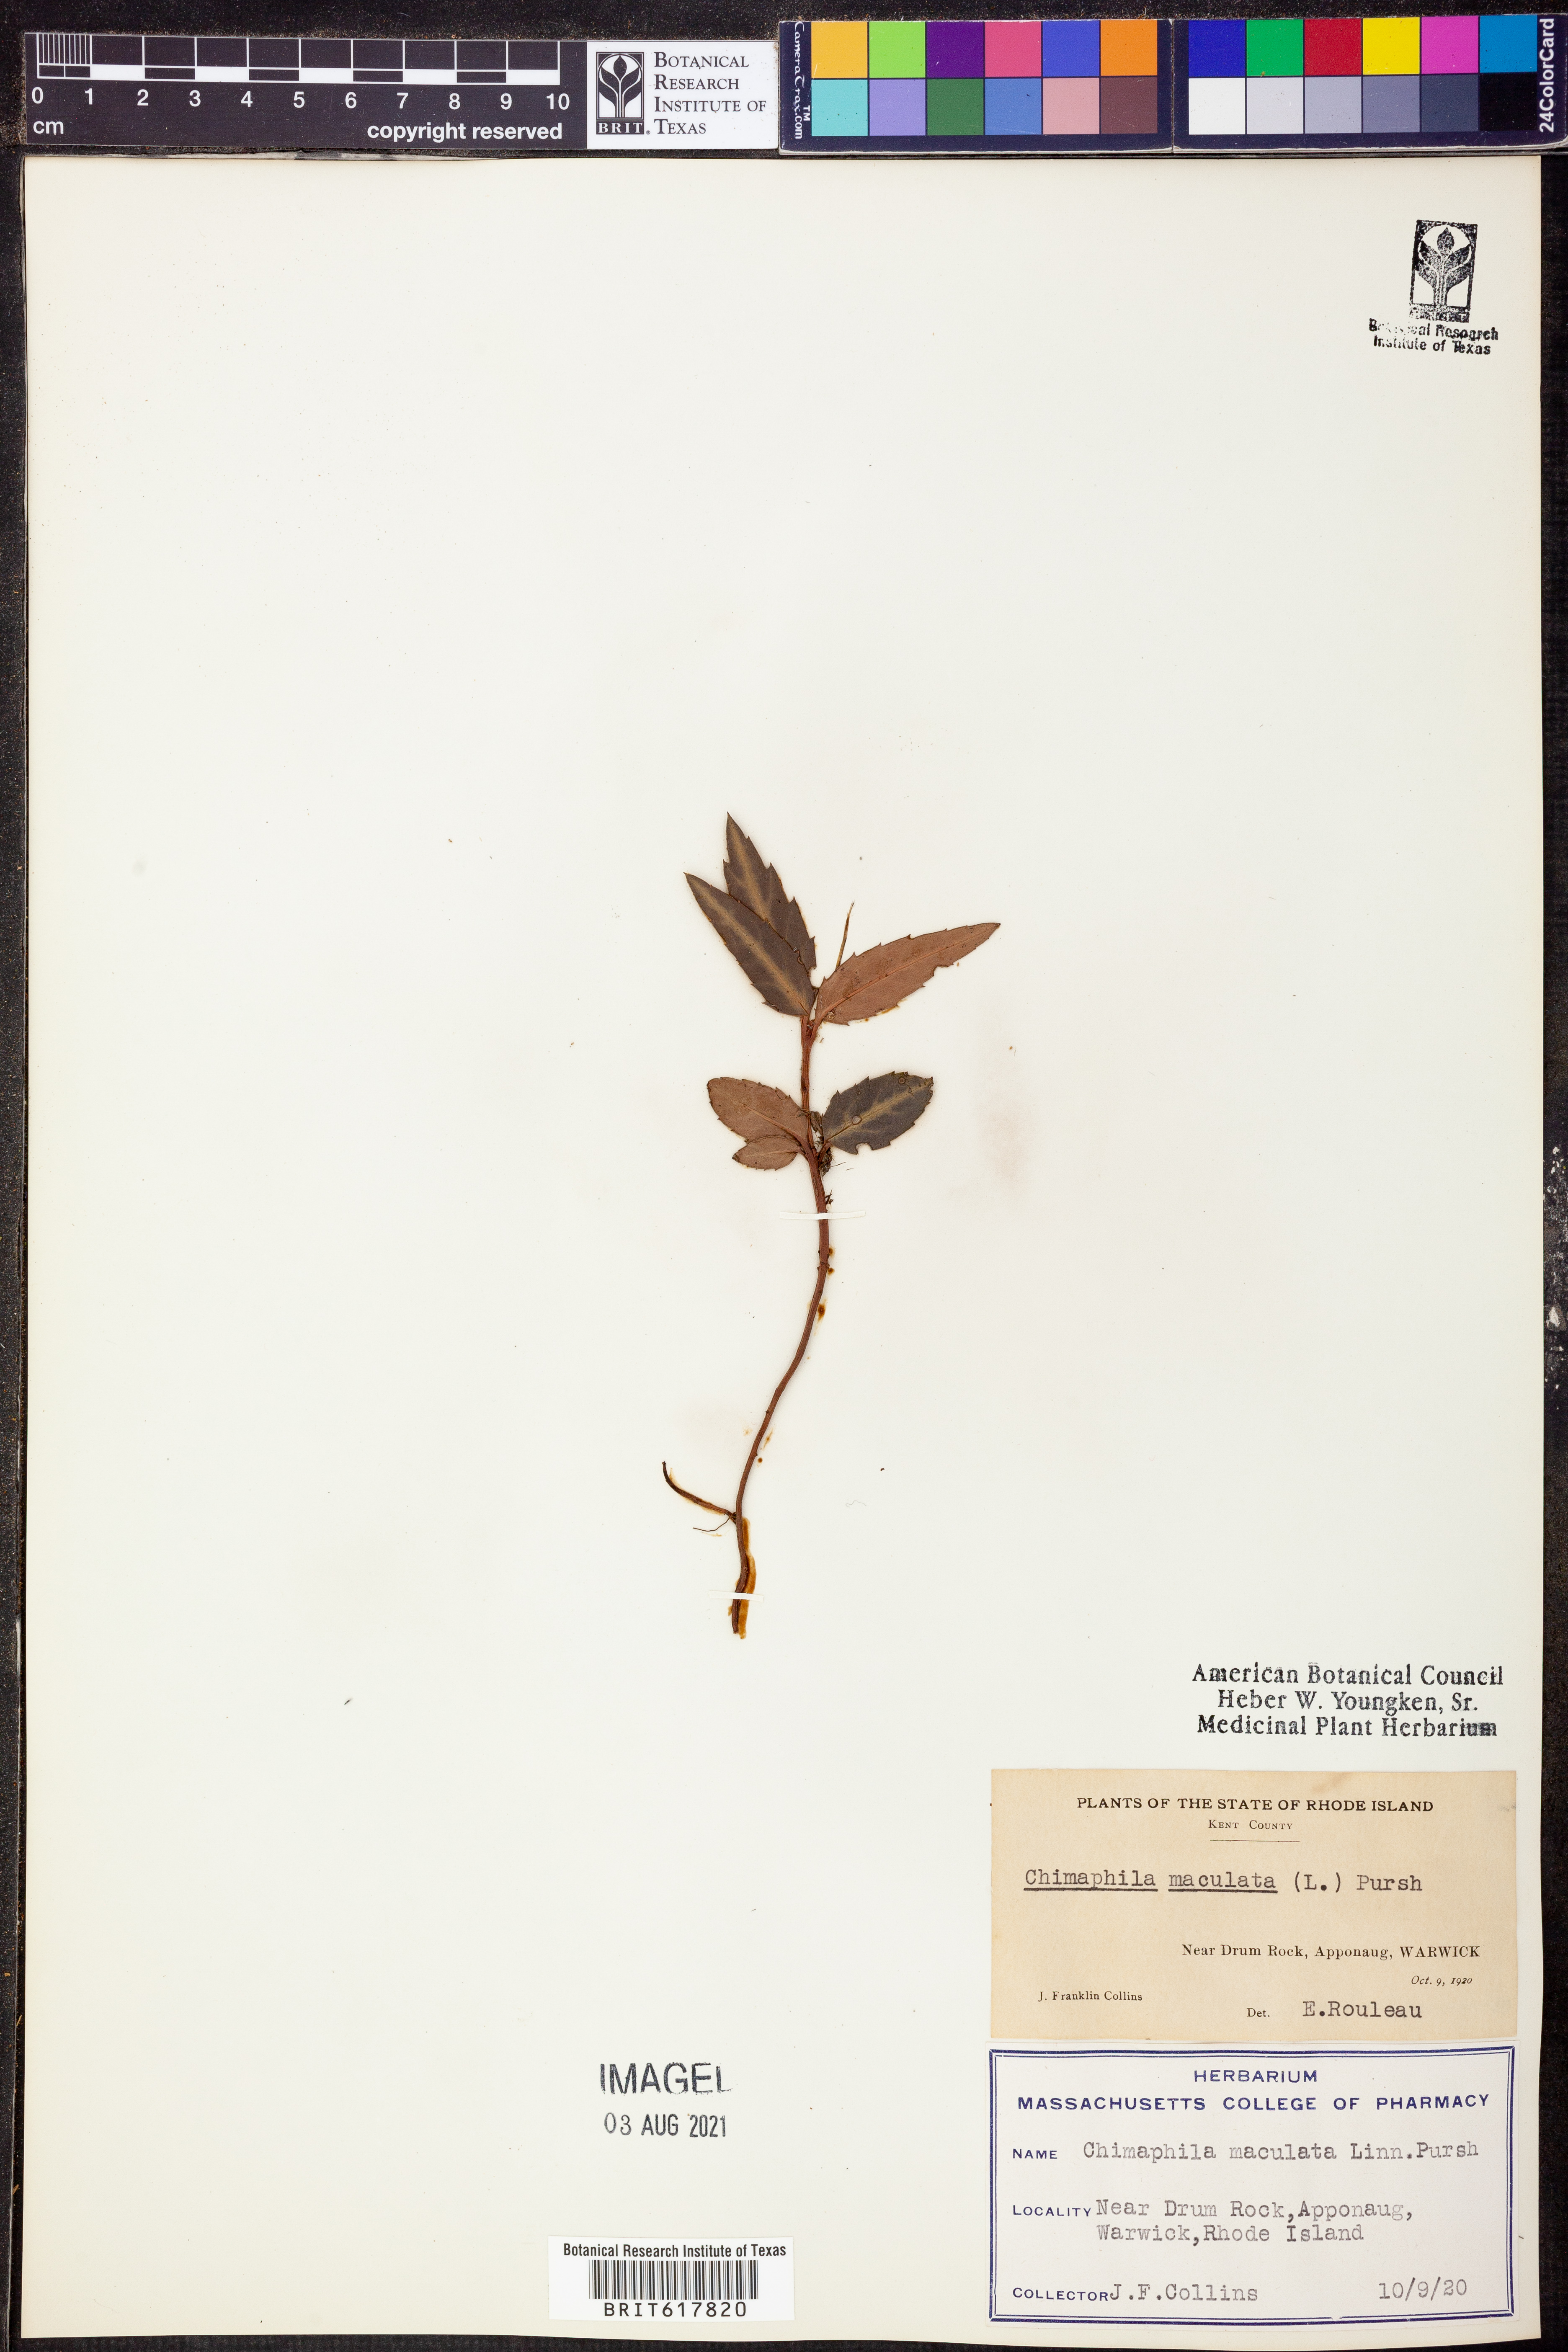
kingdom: Plantae
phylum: Tracheophyta
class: Magnoliopsida
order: Ericales
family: Ericaceae
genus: Chimaphila
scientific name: Chimaphila maculata
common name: Spotted pipsissewa
